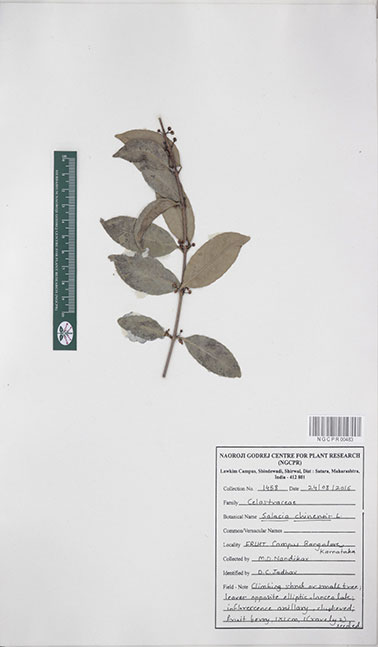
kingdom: Plantae
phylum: Tracheophyta
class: Magnoliopsida
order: Celastrales
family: Celastraceae
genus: Salacia
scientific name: Salacia chinensis
